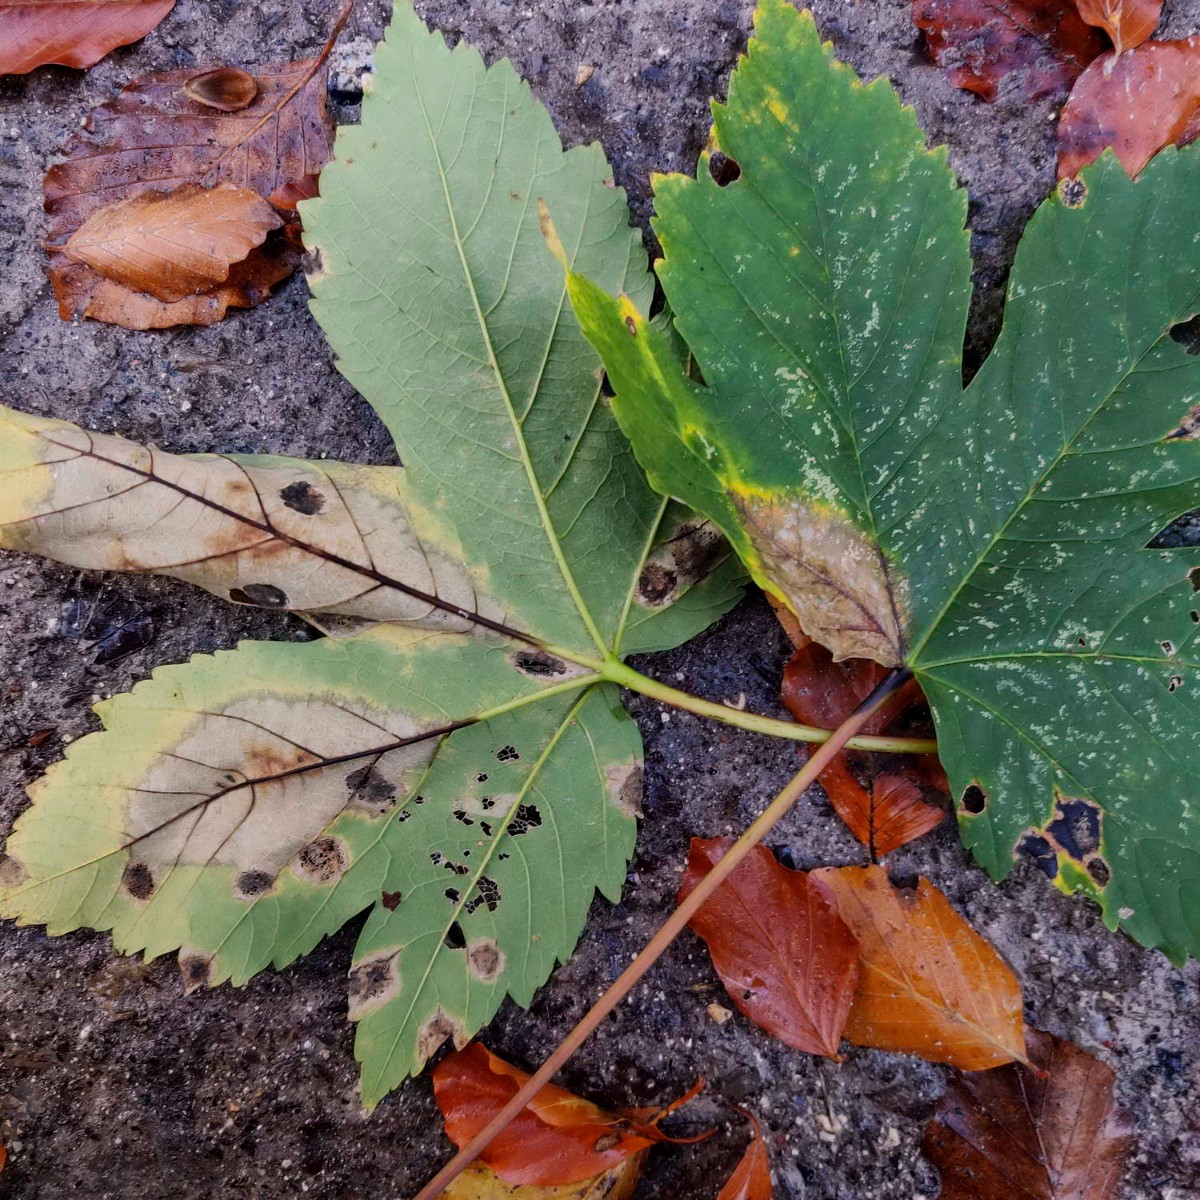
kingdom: Fungi
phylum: Ascomycota
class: Sordariomycetes
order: Diaporthales
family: Gnomoniaceae
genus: Pleuroceras
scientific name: Pleuroceras pseudoplatani
